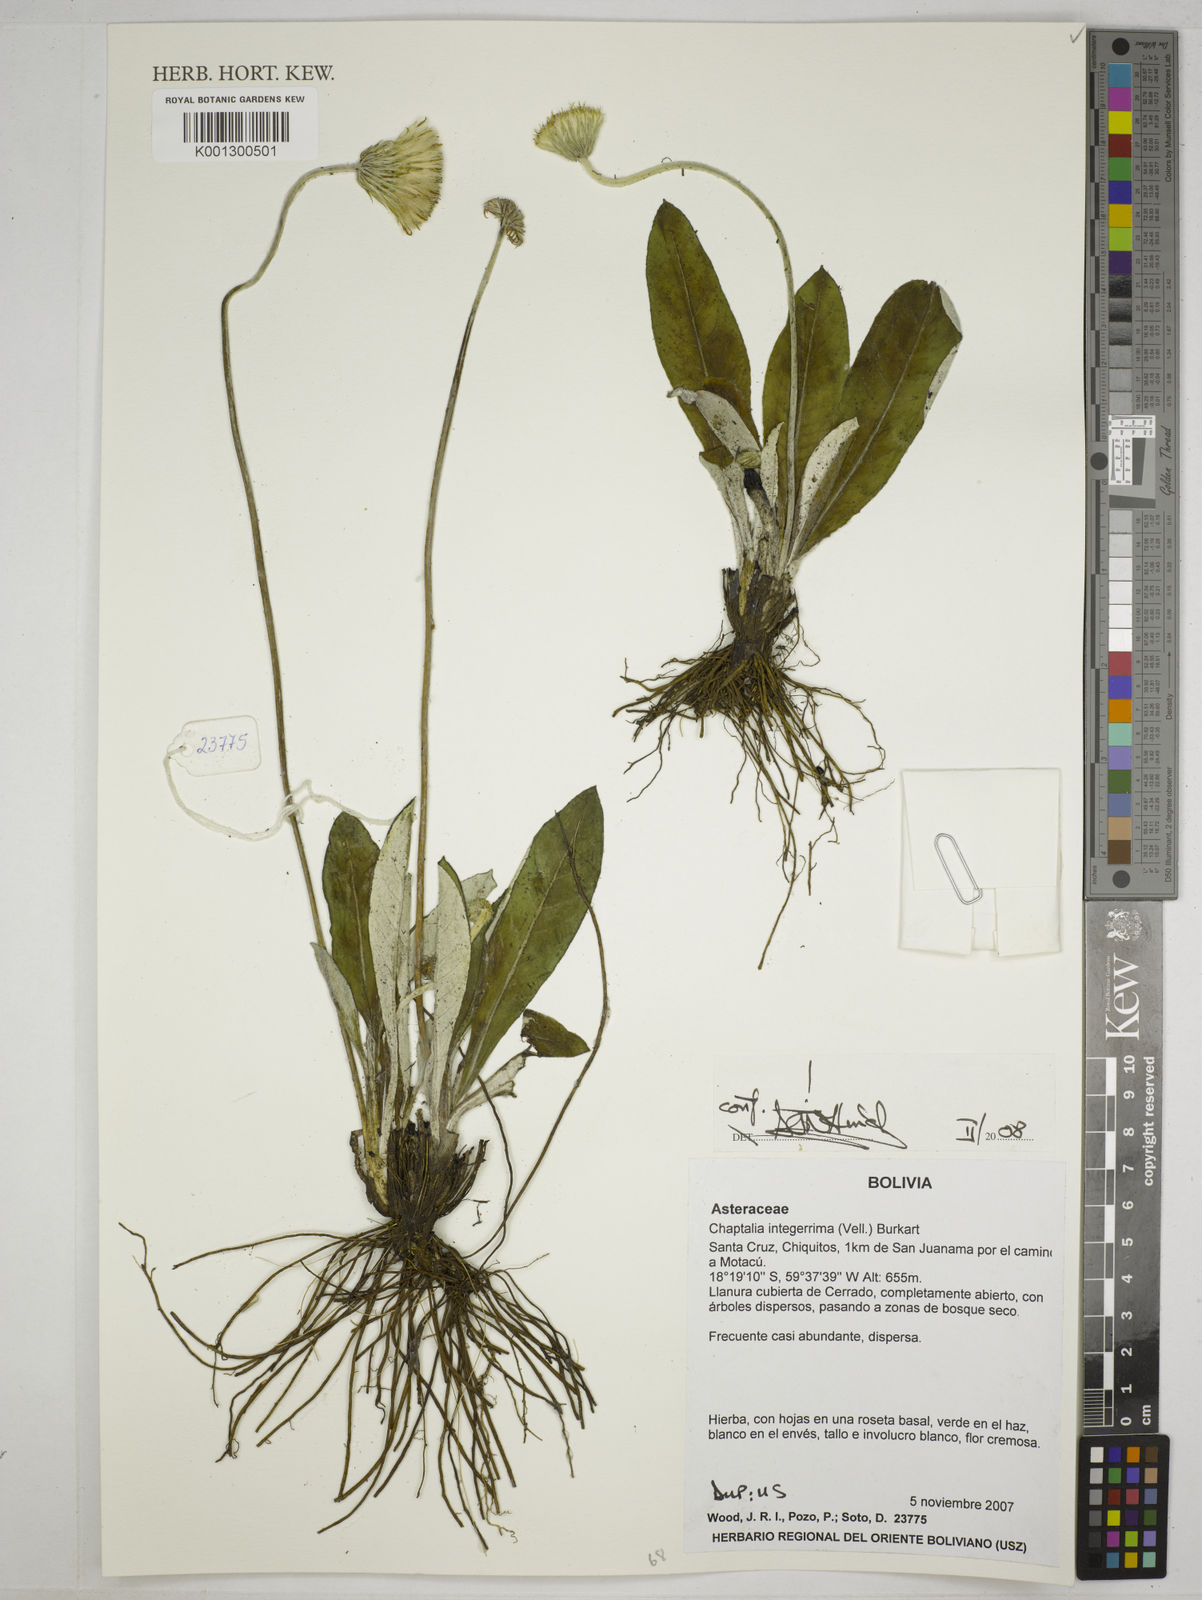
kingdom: Plantae
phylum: Tracheophyta
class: Magnoliopsida
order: Asterales
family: Asteraceae
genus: Chaptalia
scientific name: Chaptalia integerrima
